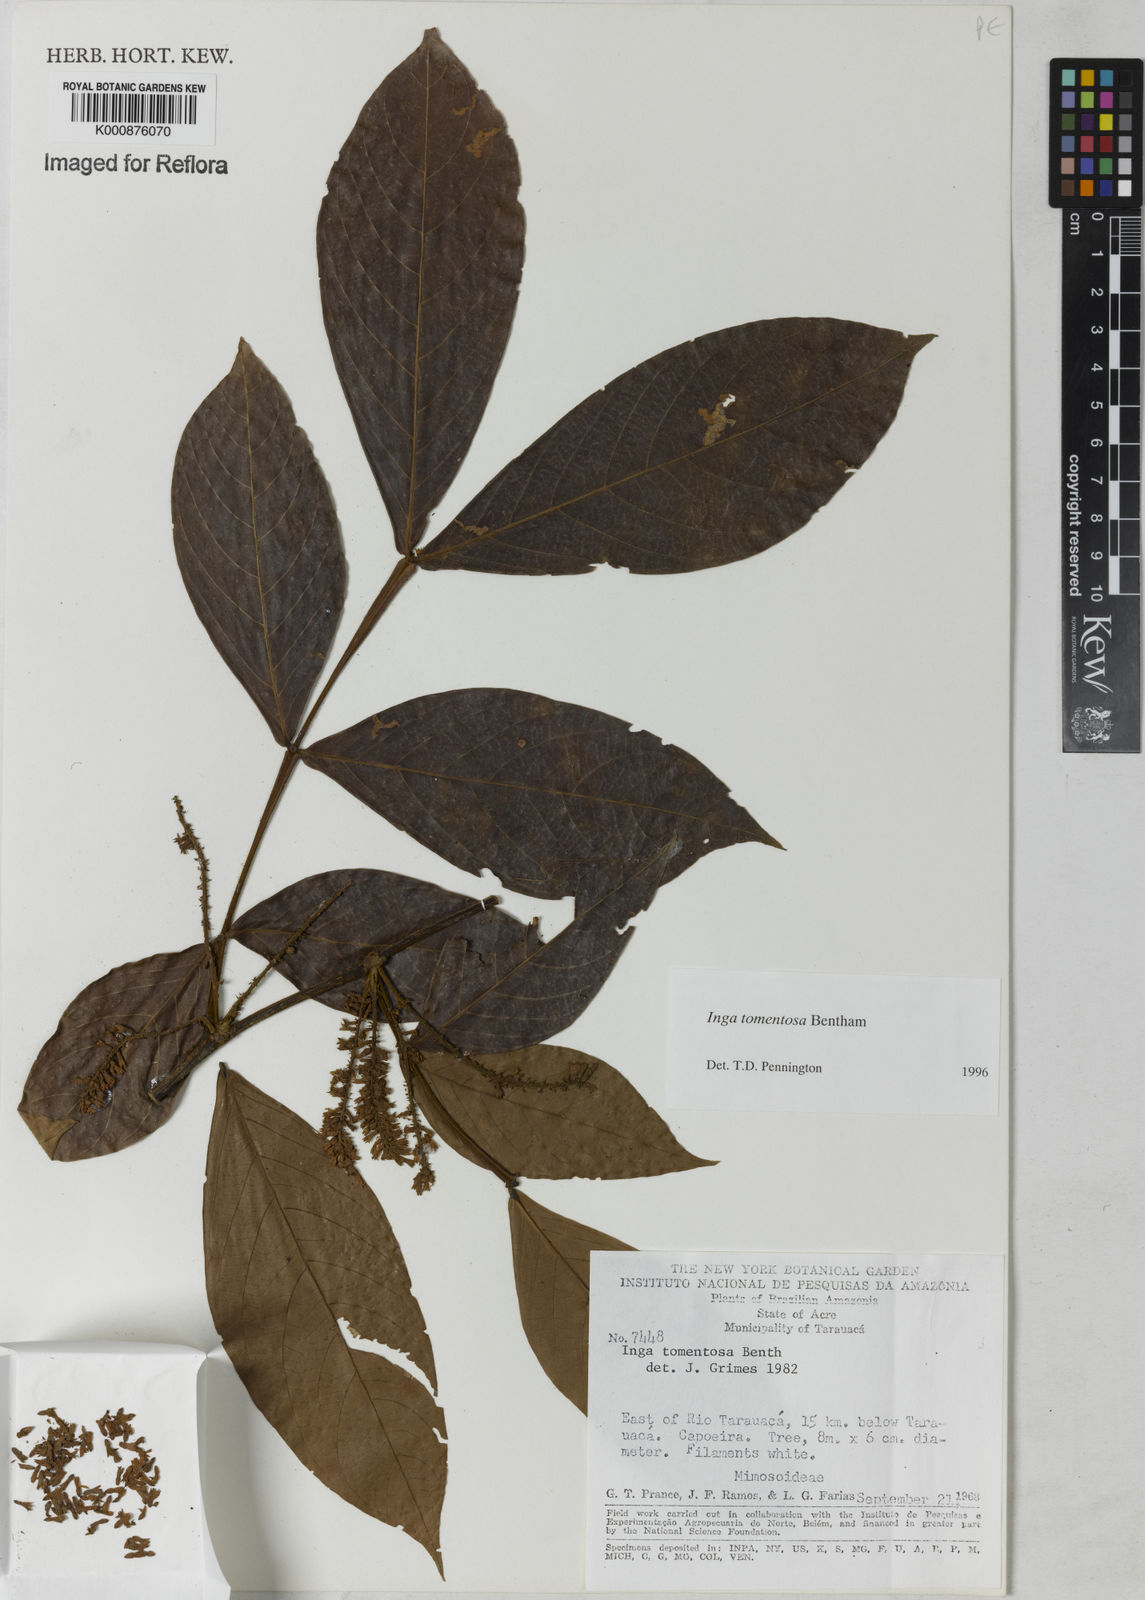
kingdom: Plantae
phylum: Tracheophyta
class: Magnoliopsida
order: Fabales
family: Fabaceae
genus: Inga
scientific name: Inga tomentosa
